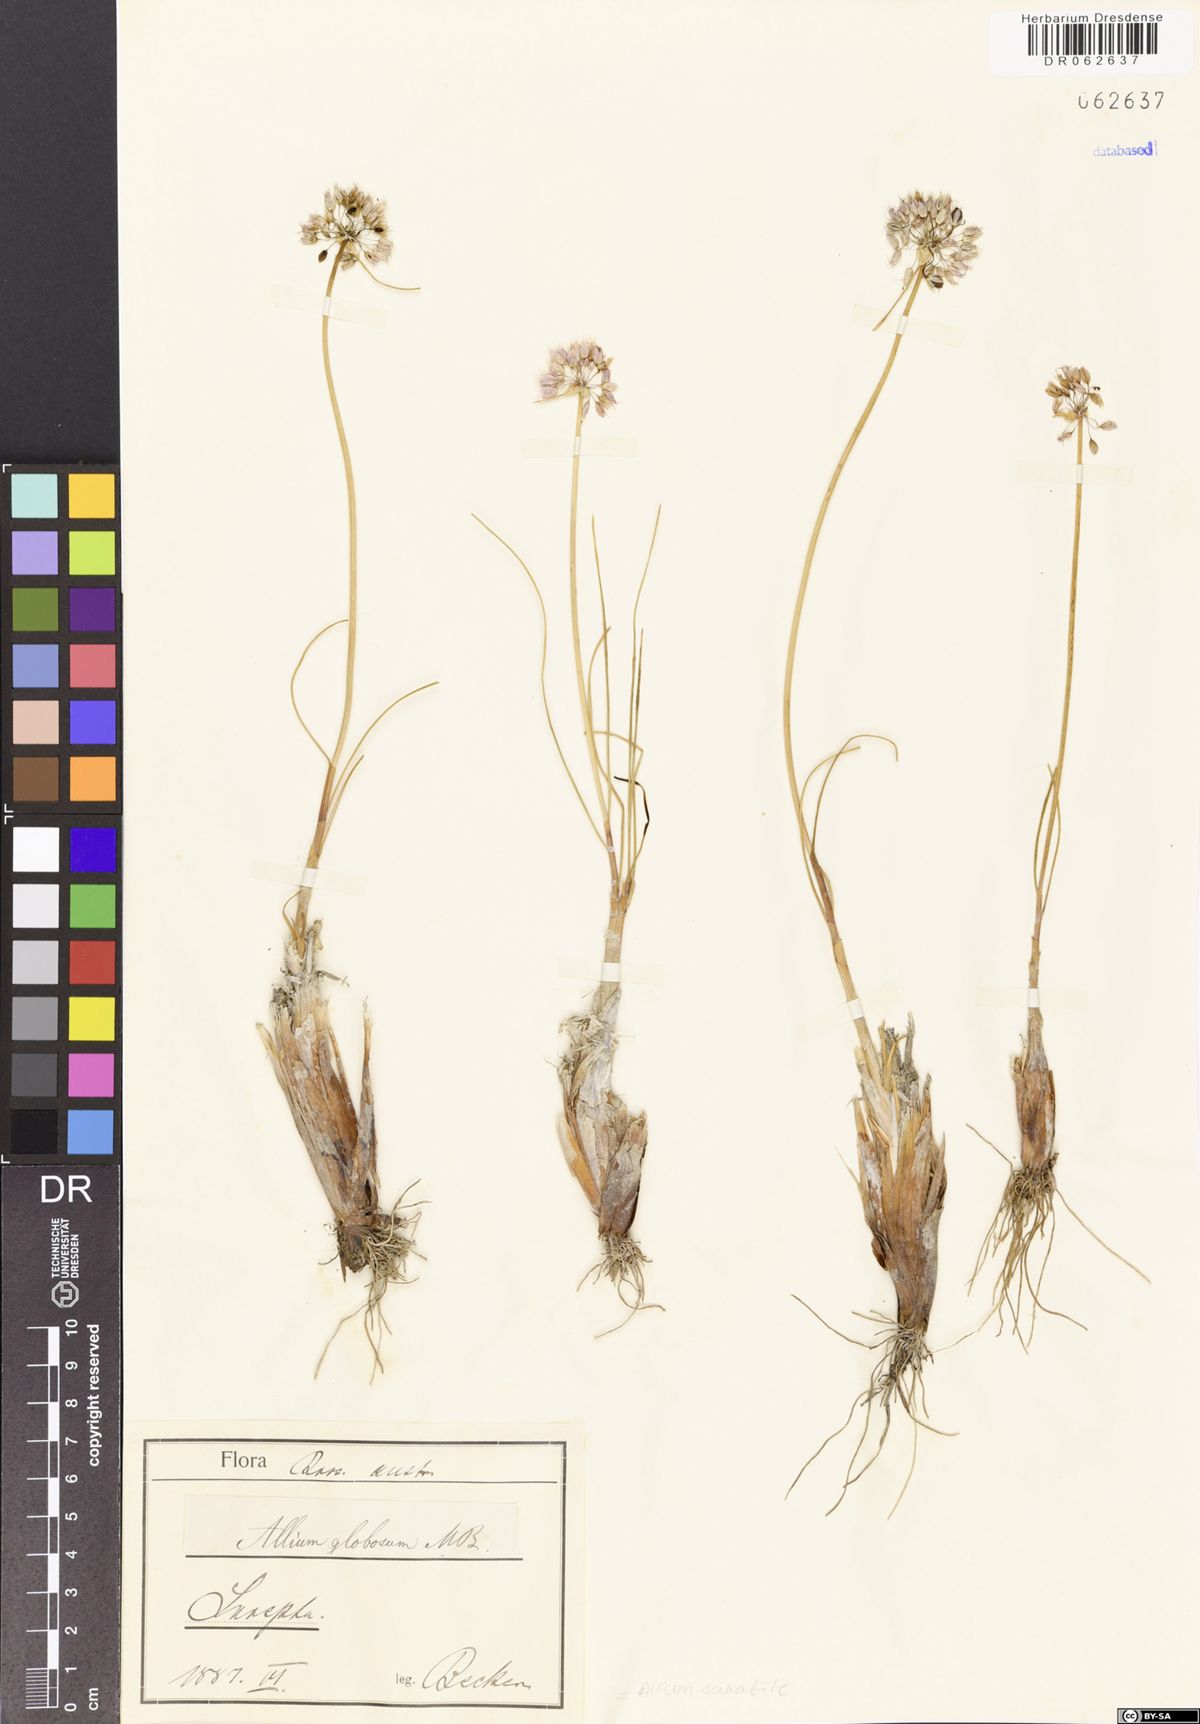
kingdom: Plantae
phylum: Tracheophyta
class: Liliopsida
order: Asparagales
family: Amaryllidaceae
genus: Allium
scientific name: Allium saxatile
